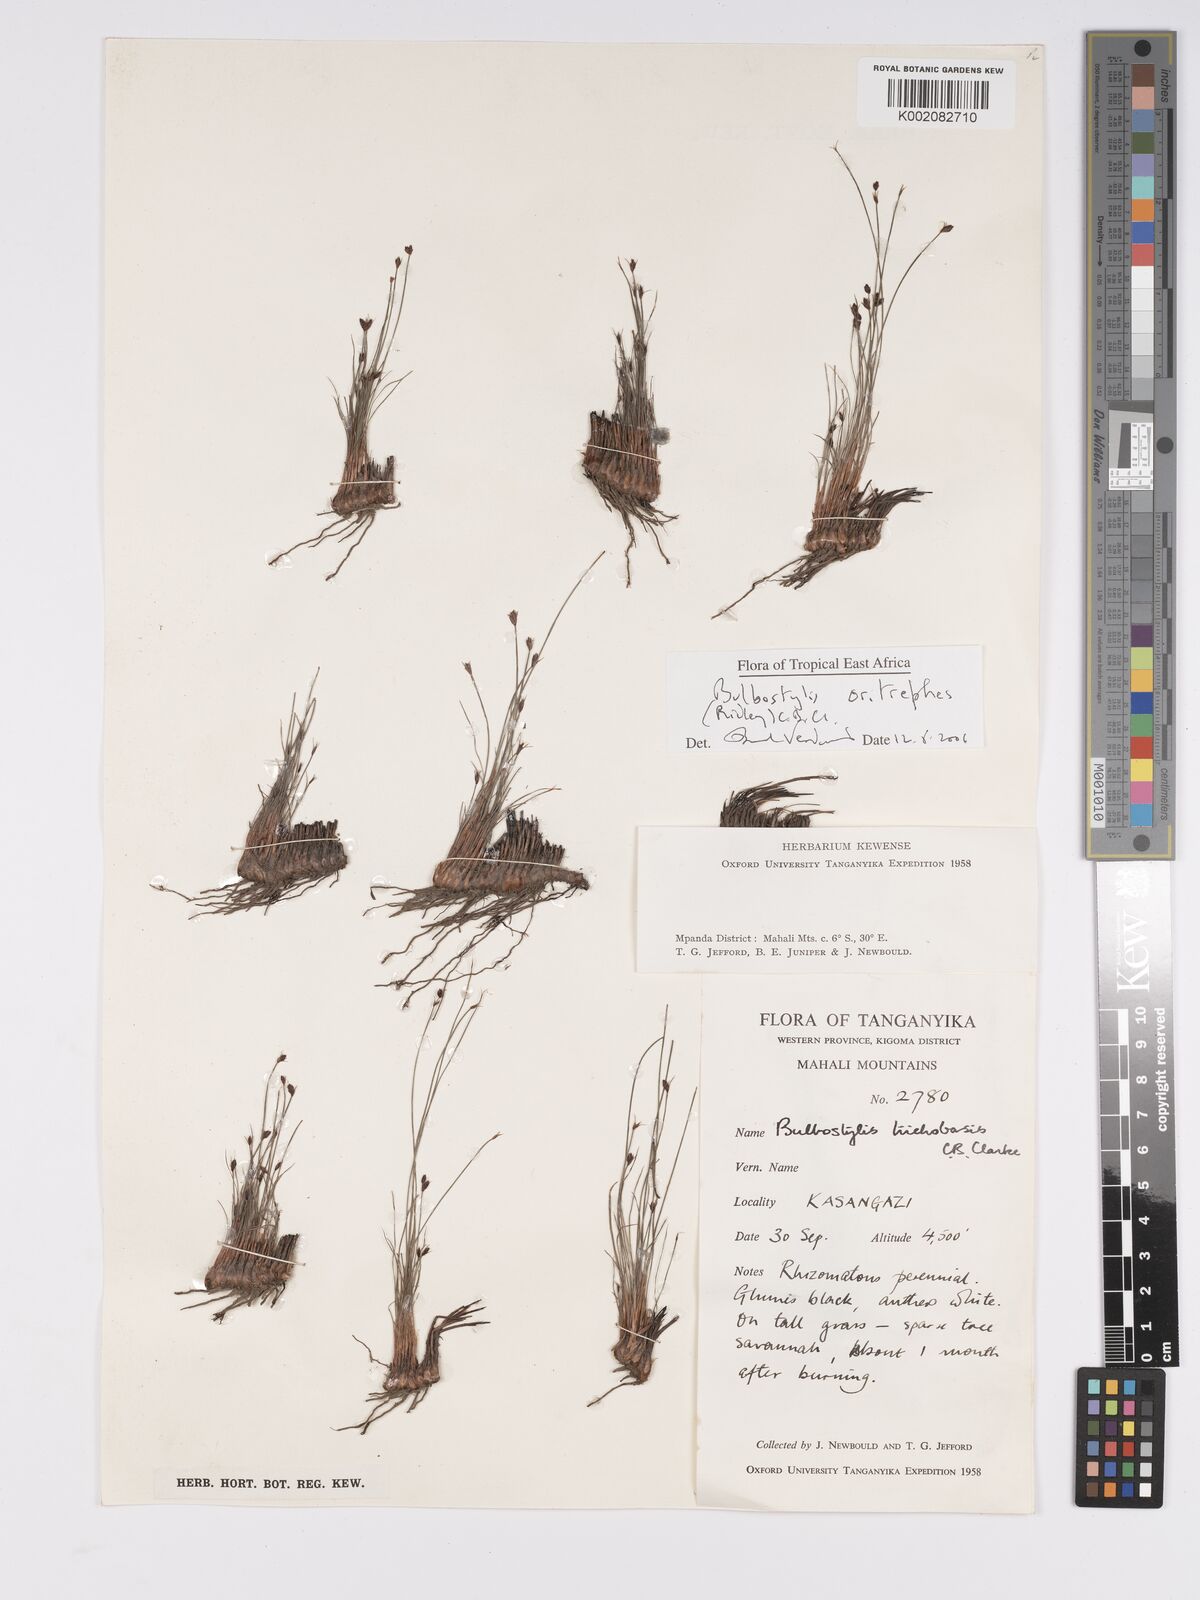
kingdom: Plantae
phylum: Tracheophyta
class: Liliopsida
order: Poales
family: Cyperaceae
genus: Bulbostylis
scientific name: Bulbostylis oritrephes
